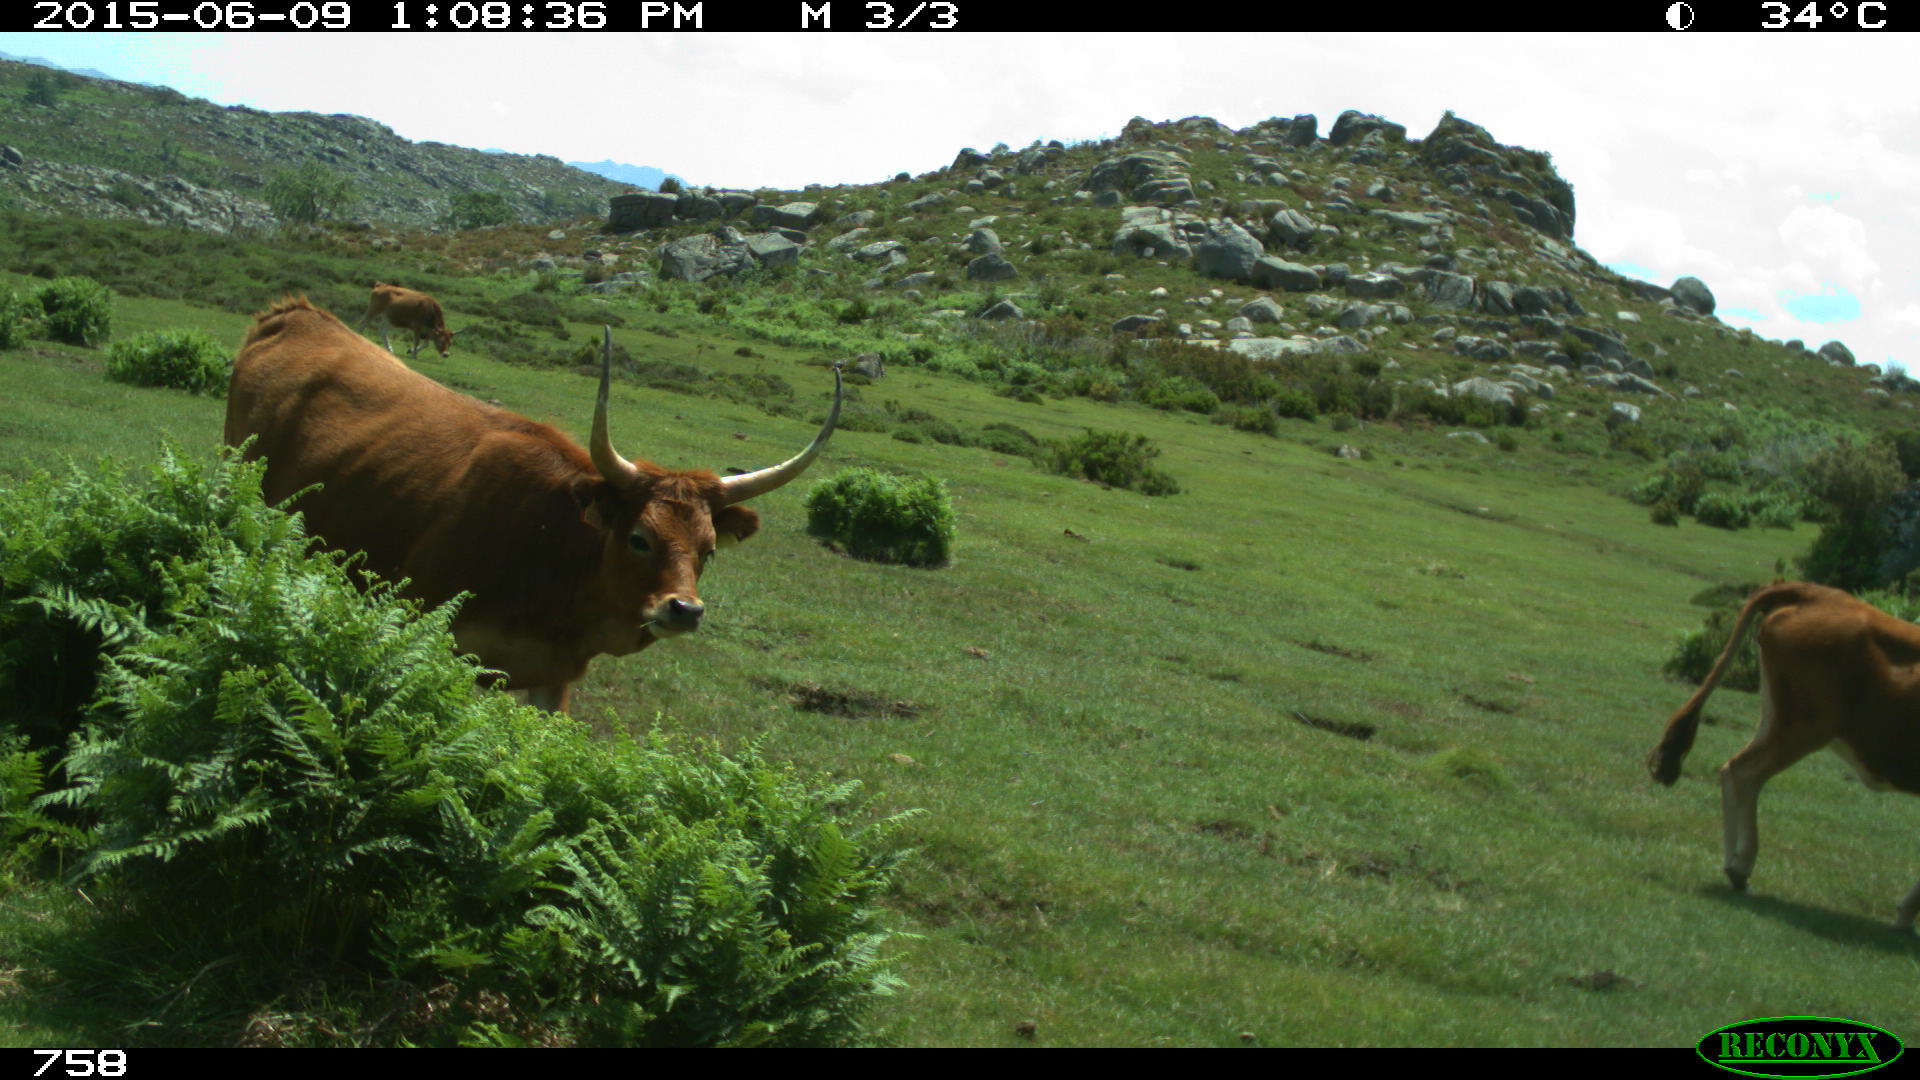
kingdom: Animalia
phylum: Chordata
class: Mammalia
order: Artiodactyla
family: Bovidae
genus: Bos
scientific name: Bos taurus
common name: Domesticated cattle
